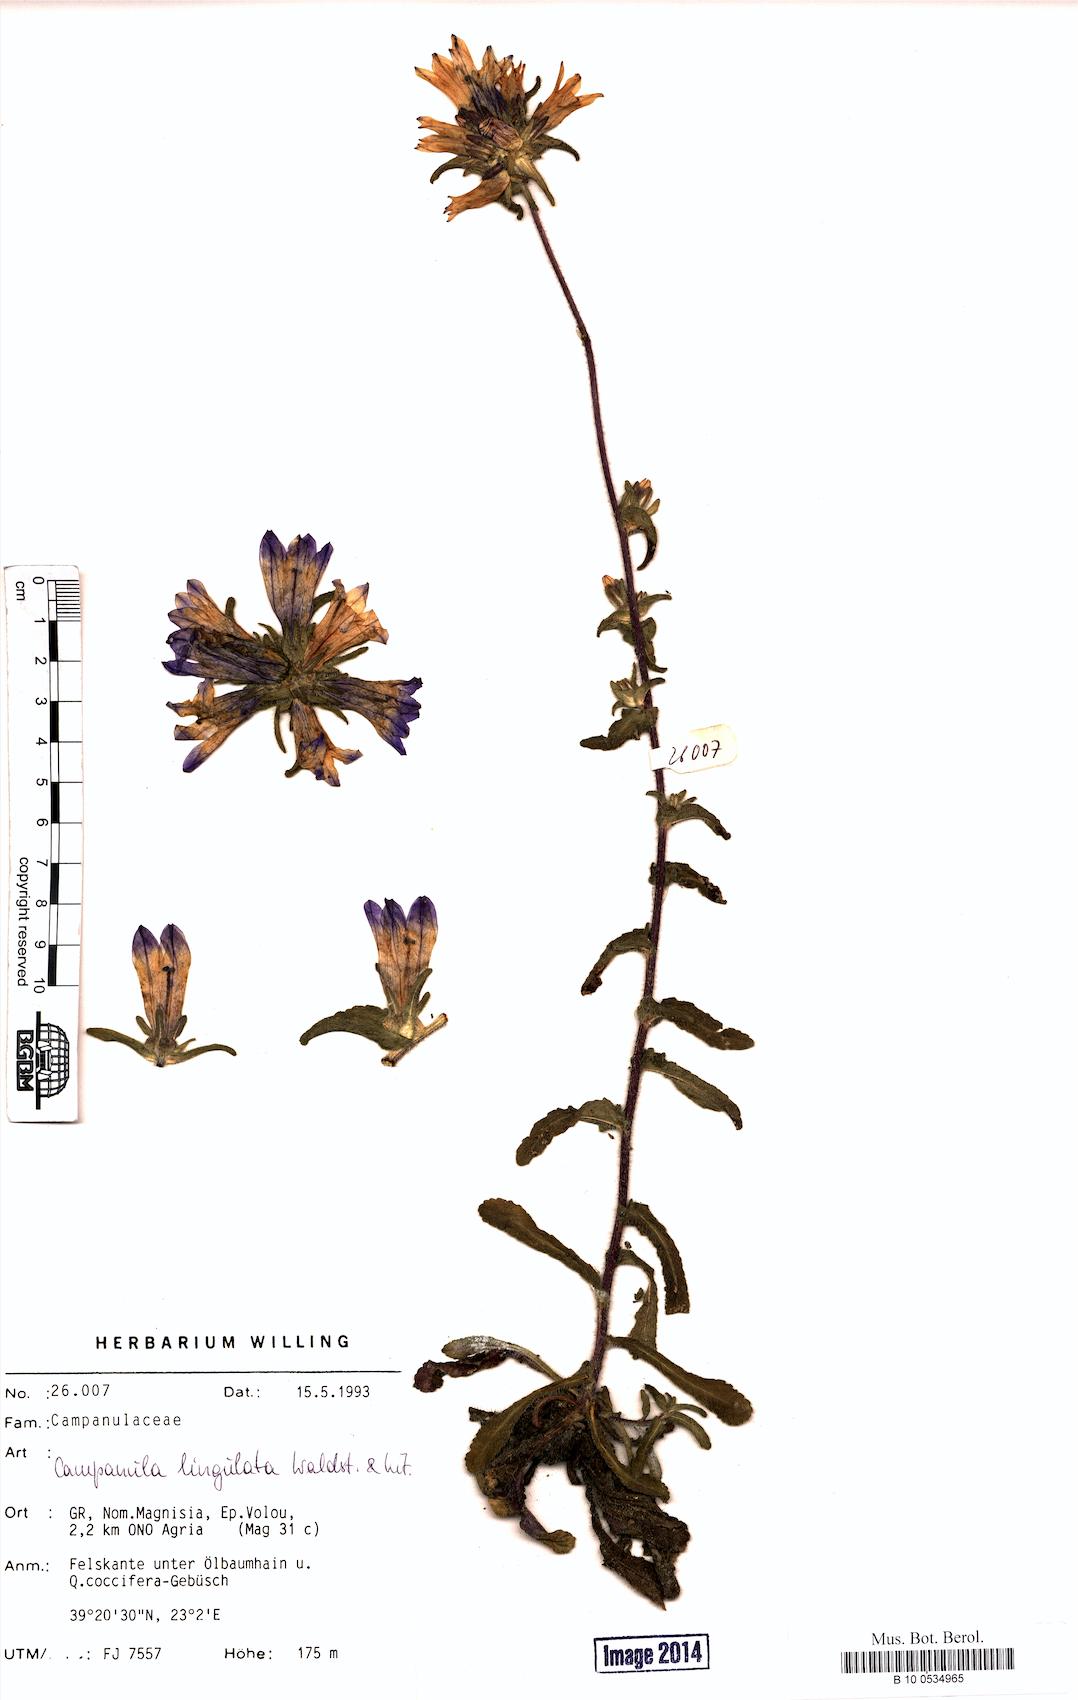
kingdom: Plantae
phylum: Tracheophyta
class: Magnoliopsida
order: Asterales
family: Campanulaceae
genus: Campanula
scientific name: Campanula lingulata
